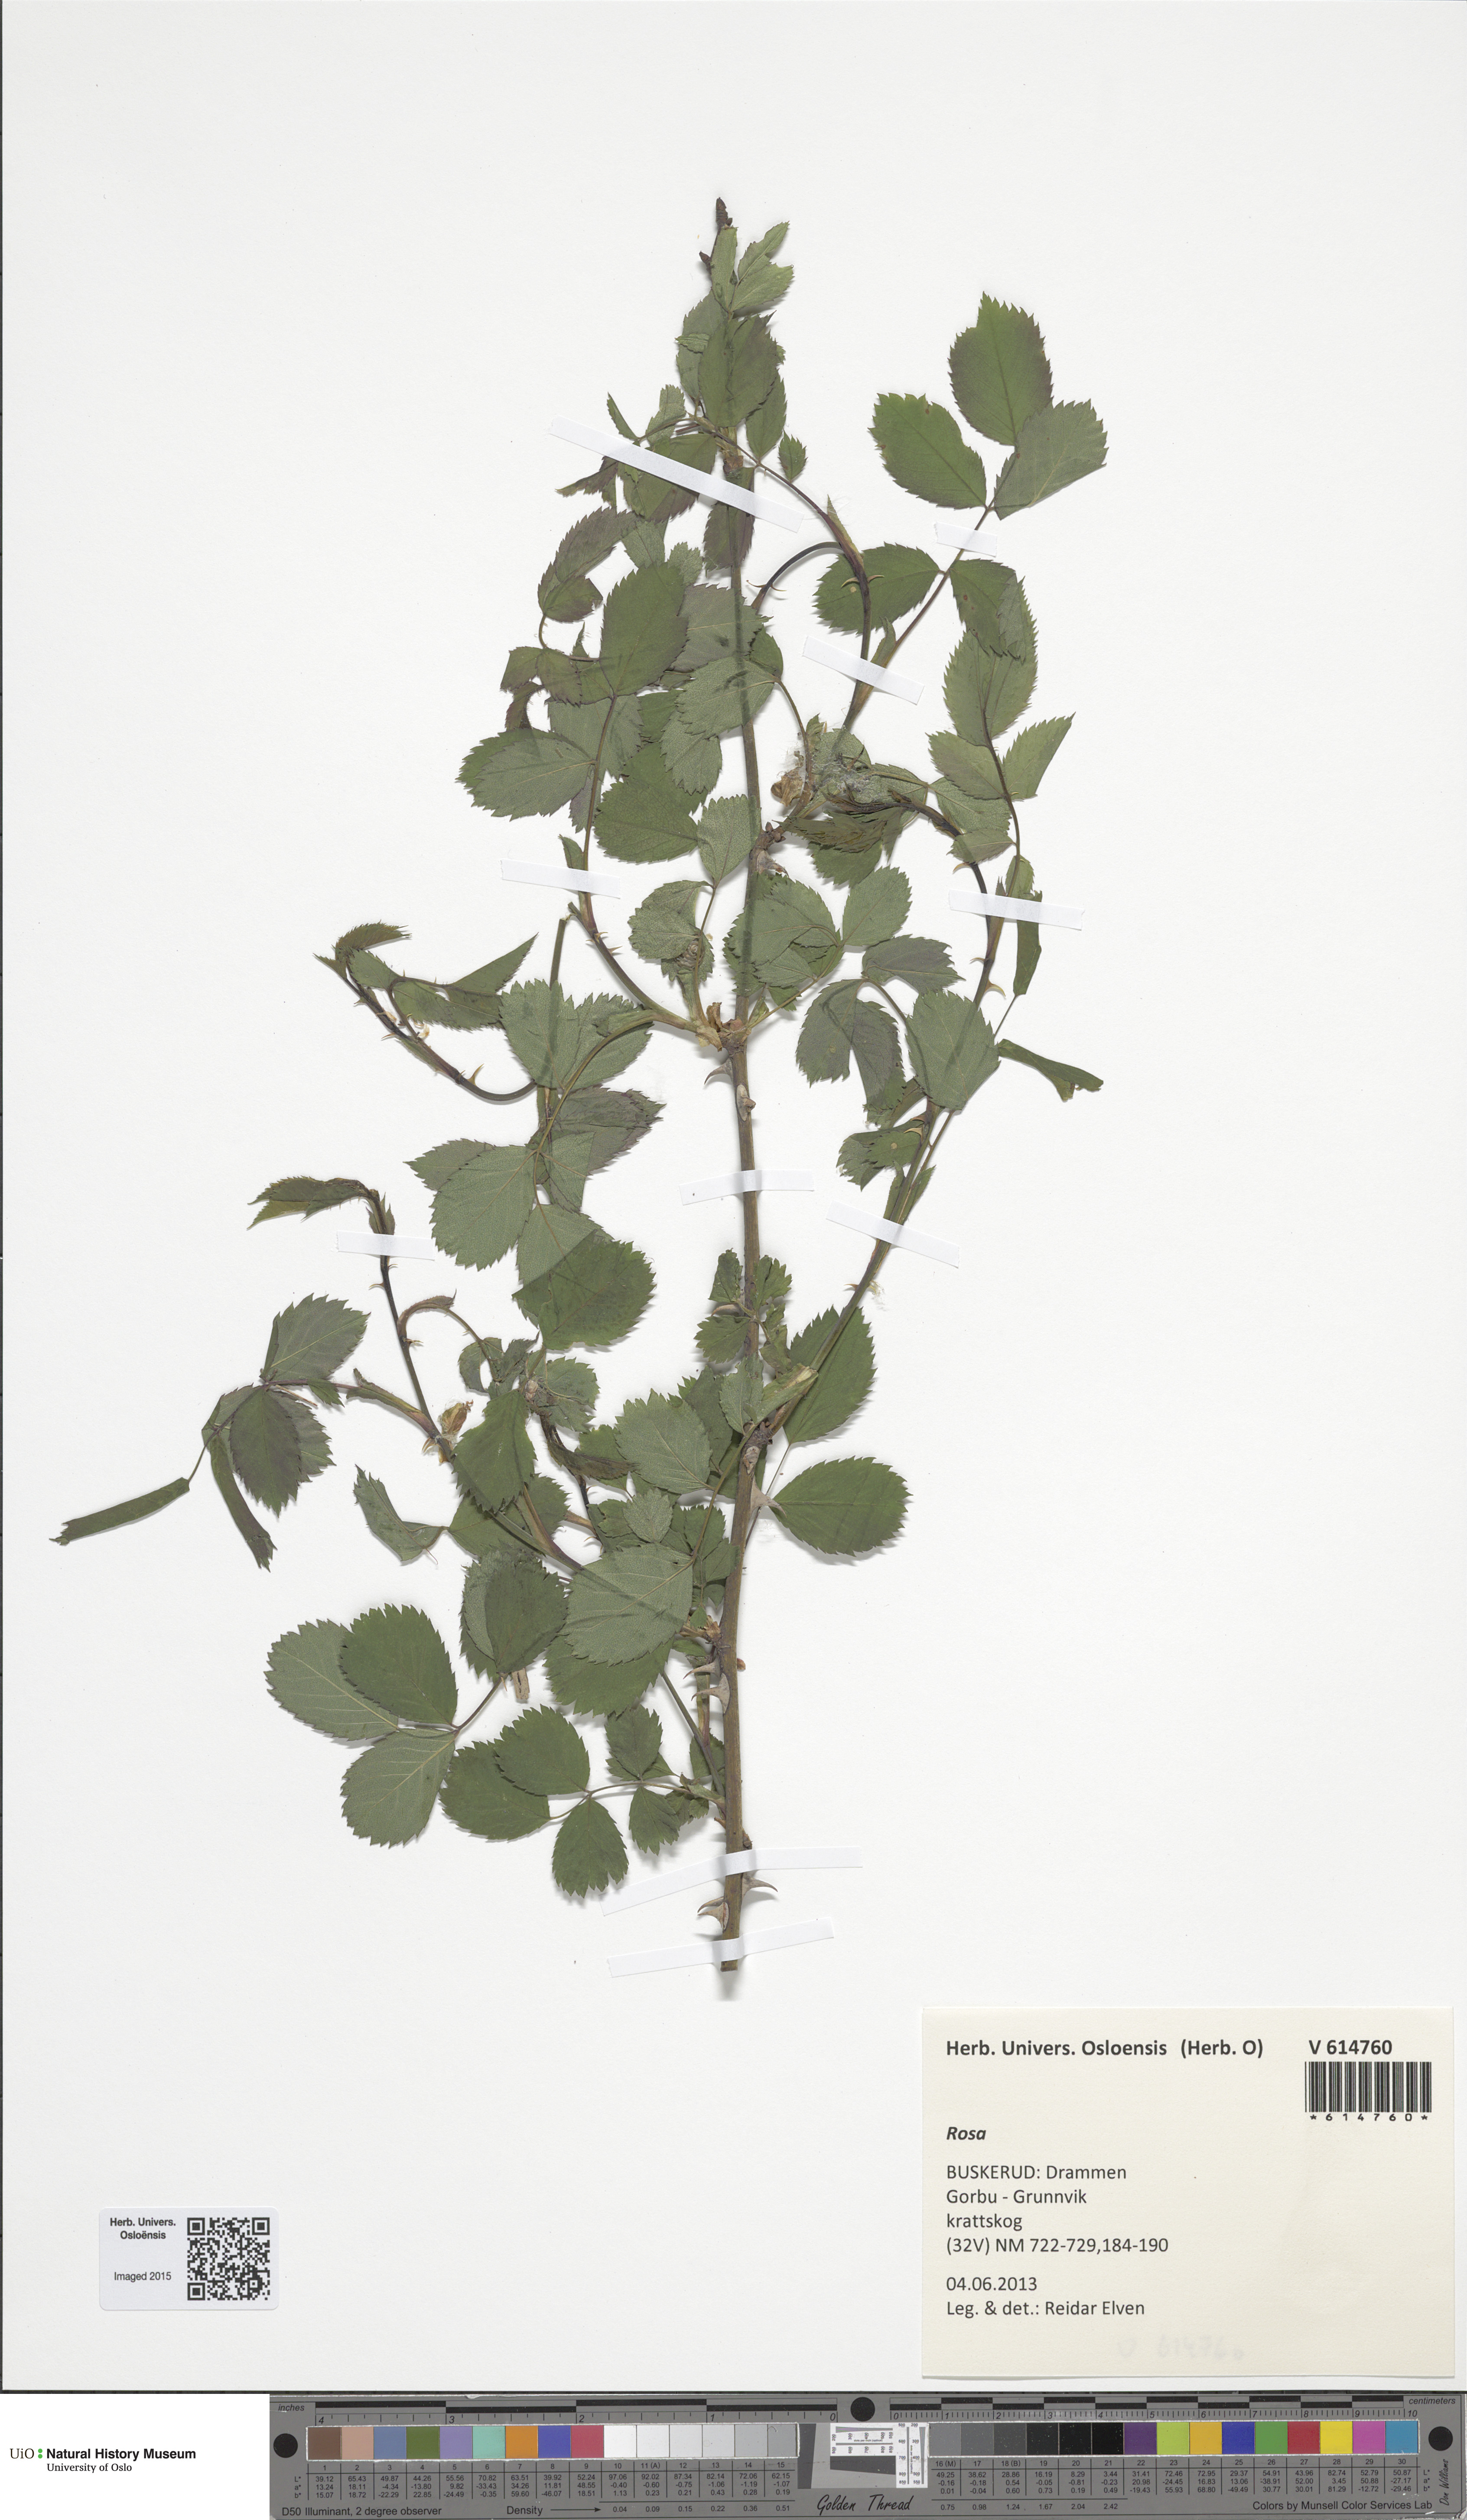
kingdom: Plantae
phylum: Tracheophyta
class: Magnoliopsida
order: Rosales
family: Rosaceae
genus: Rosa
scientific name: Rosa
